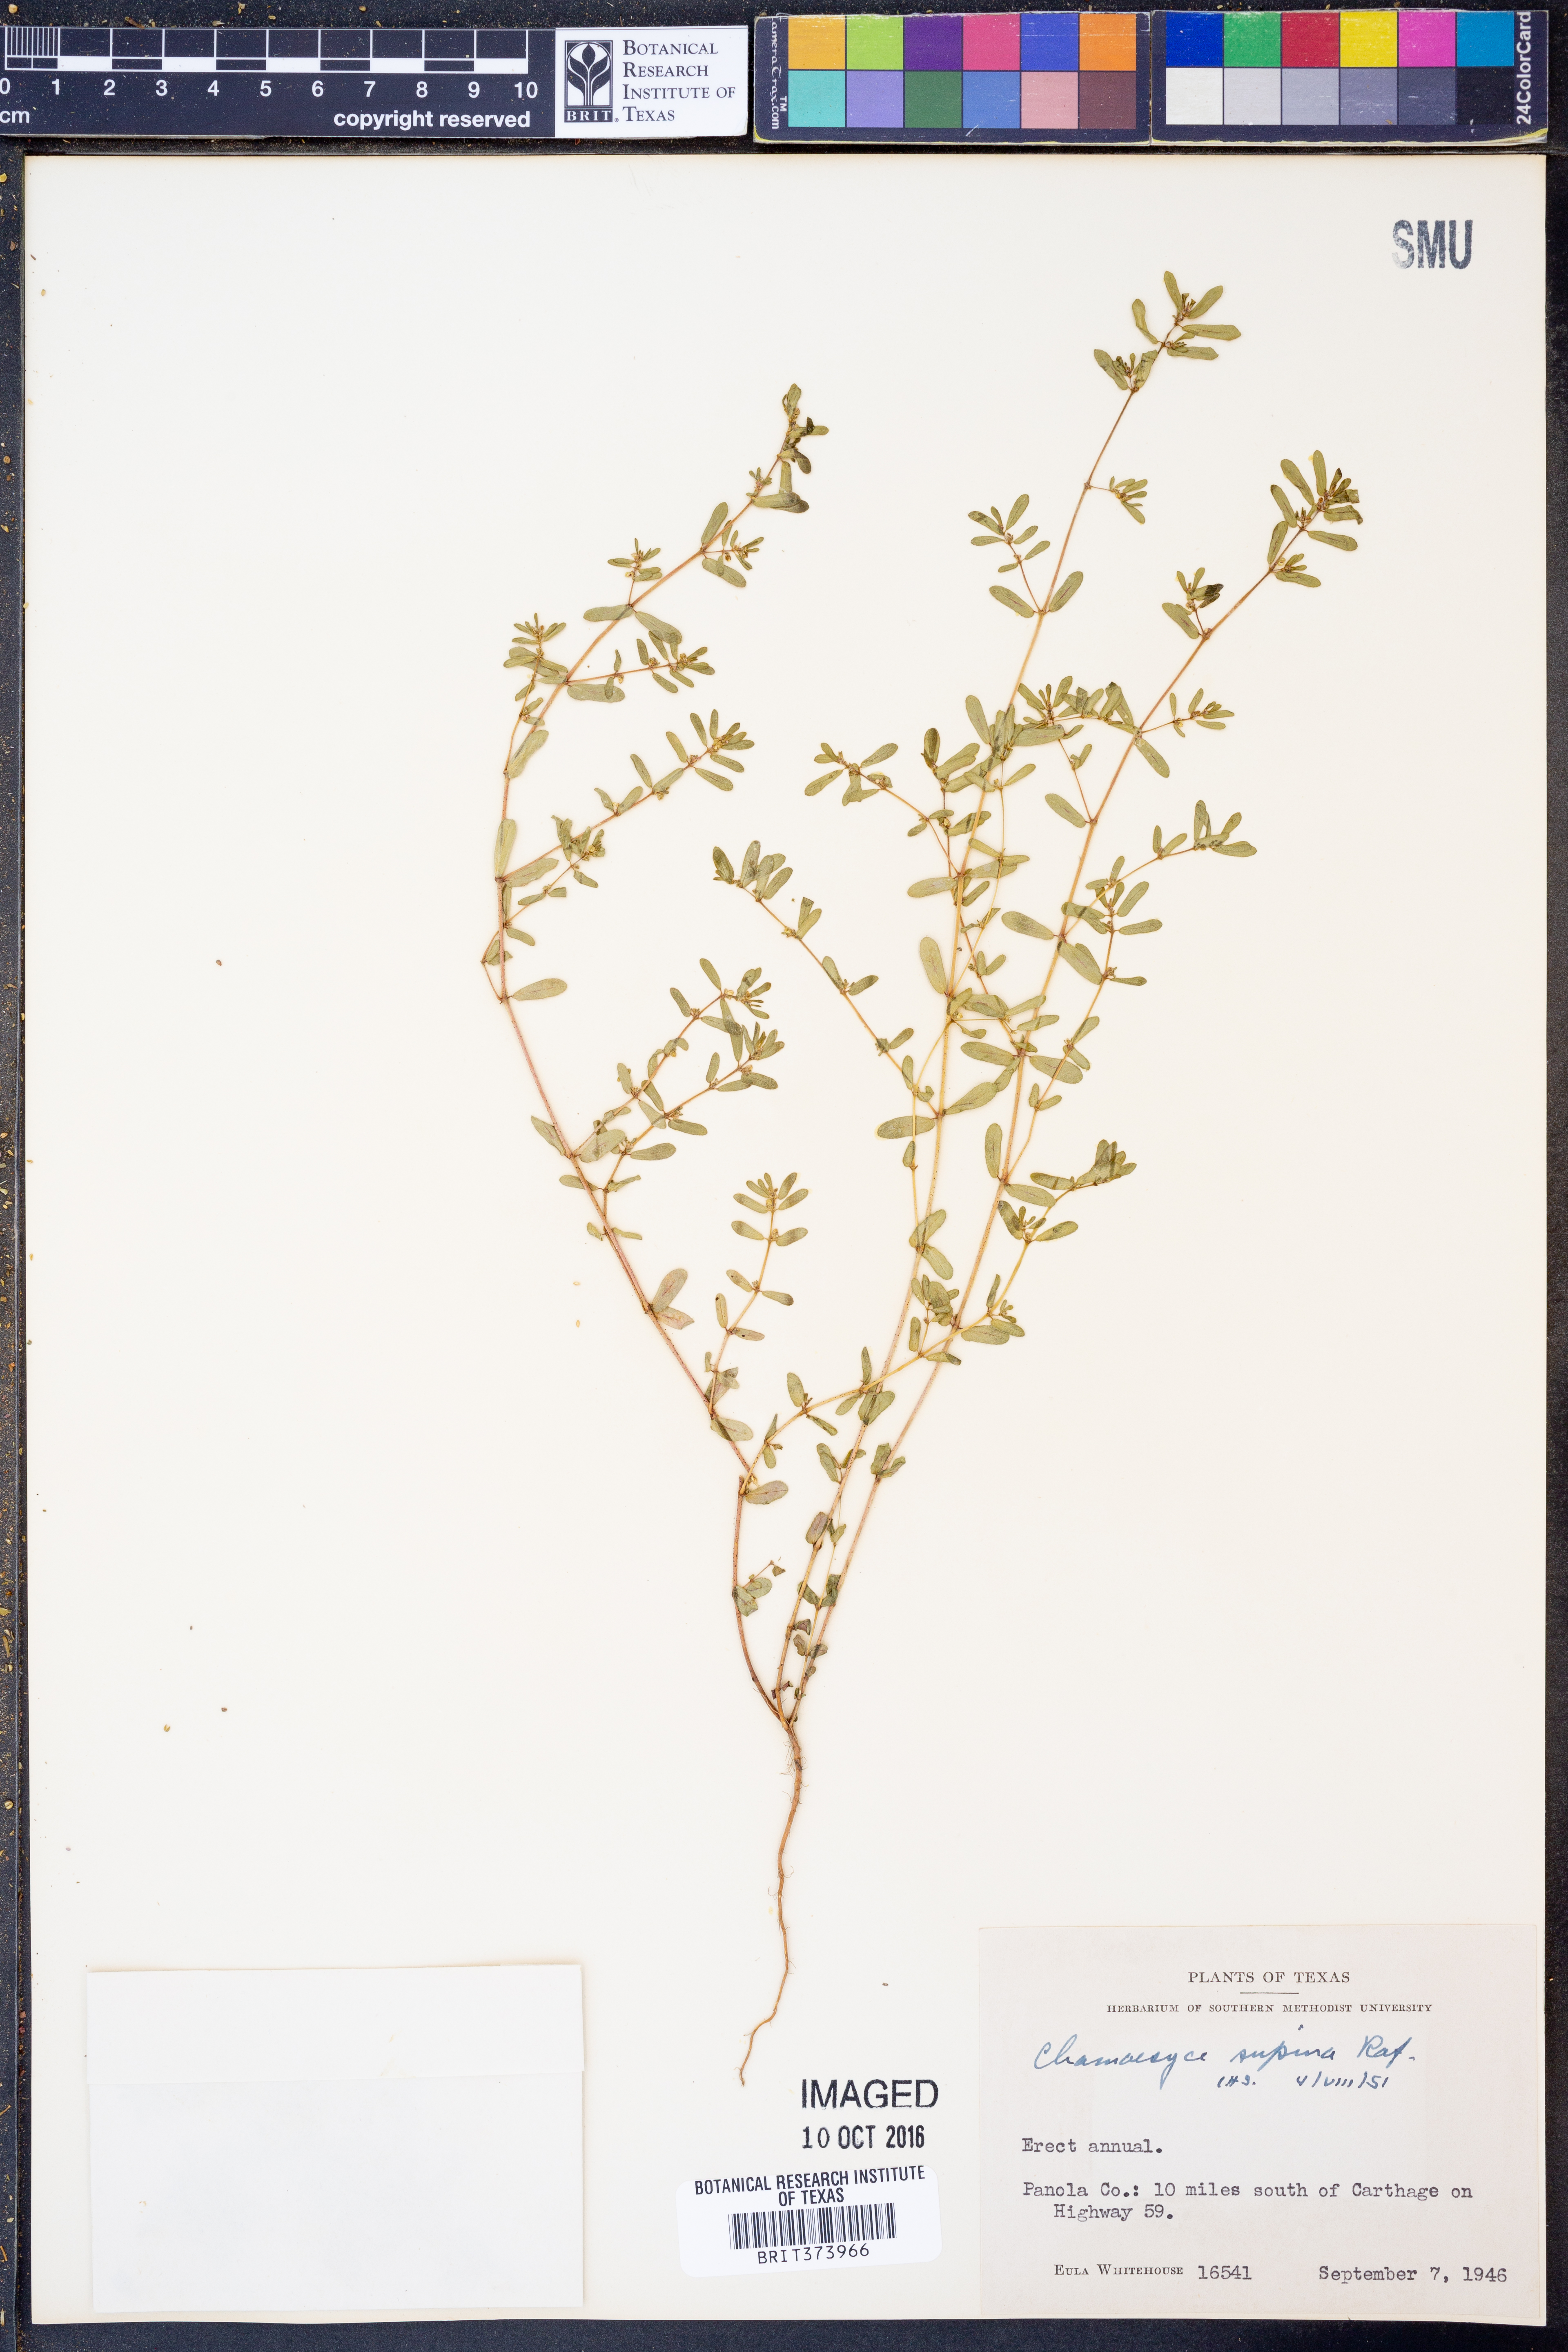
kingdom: Plantae
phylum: Tracheophyta
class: Magnoliopsida
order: Malpighiales
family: Euphorbiaceae
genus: Euphorbia
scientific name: Euphorbia maculata
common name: Spotted spurge
